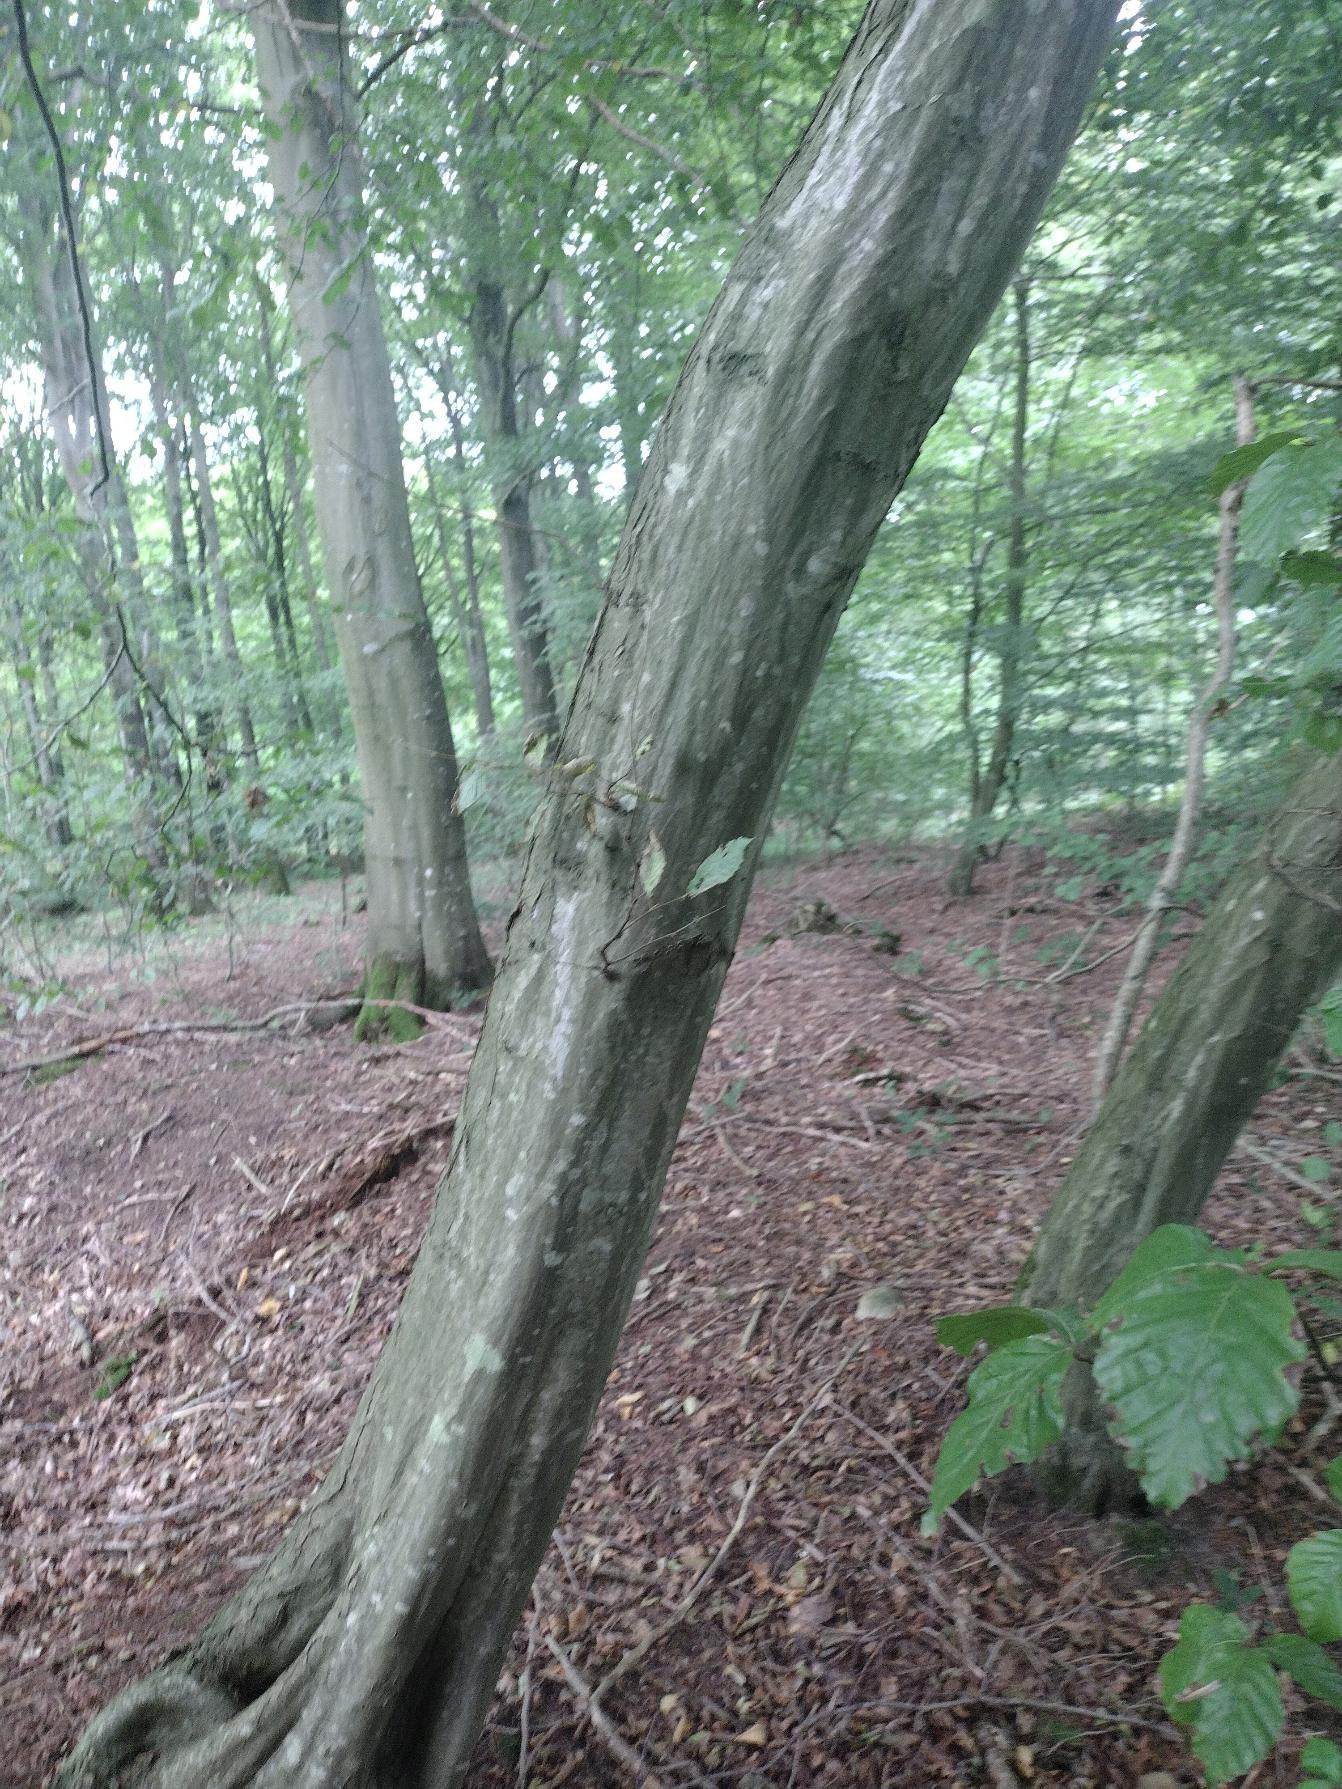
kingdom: Plantae
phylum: Tracheophyta
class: Magnoliopsida
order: Fagales
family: Betulaceae
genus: Carpinus
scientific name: Carpinus betulus
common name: Avnbøg
